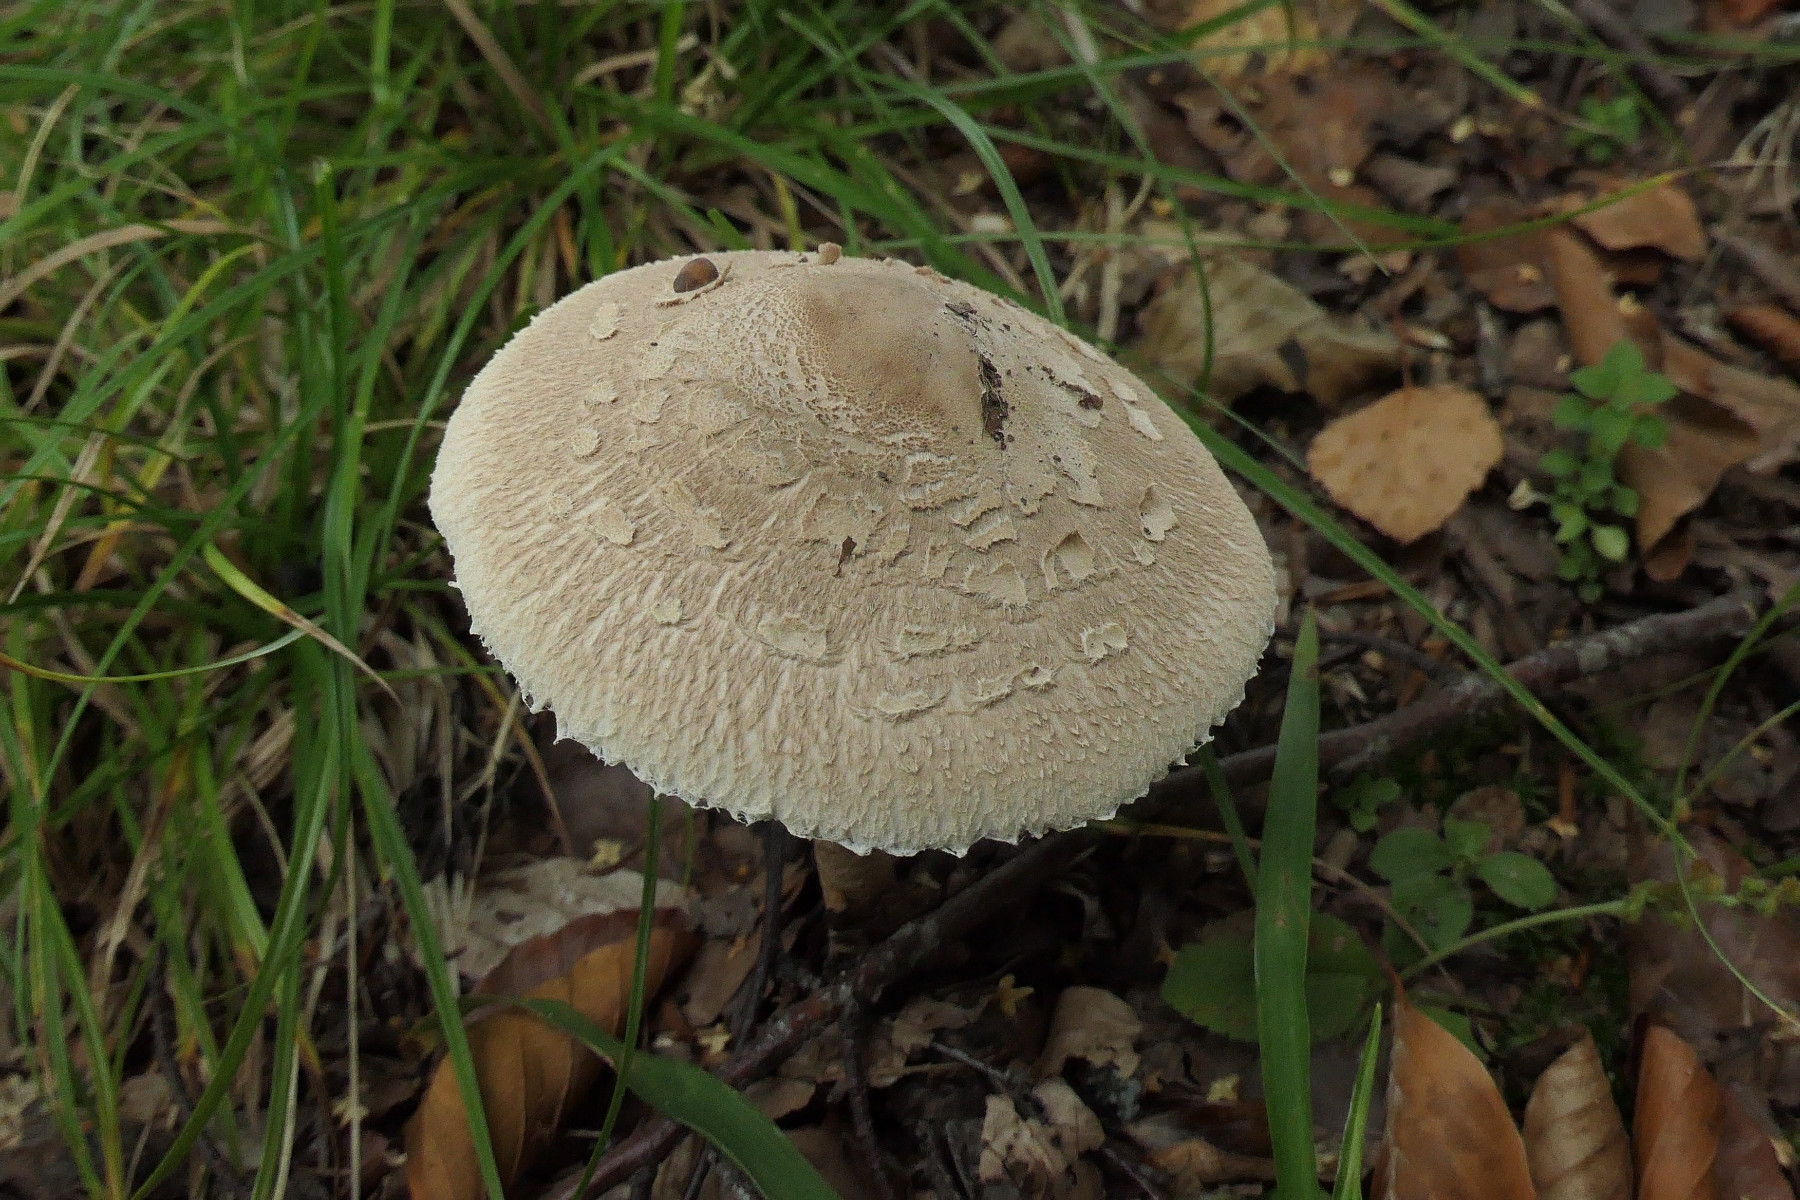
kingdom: Fungi
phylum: Basidiomycota
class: Agaricomycetes
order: Agaricales
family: Agaricaceae
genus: Macrolepiota
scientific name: Macrolepiota mastoidea
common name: puklet kæmpeparasolhat
